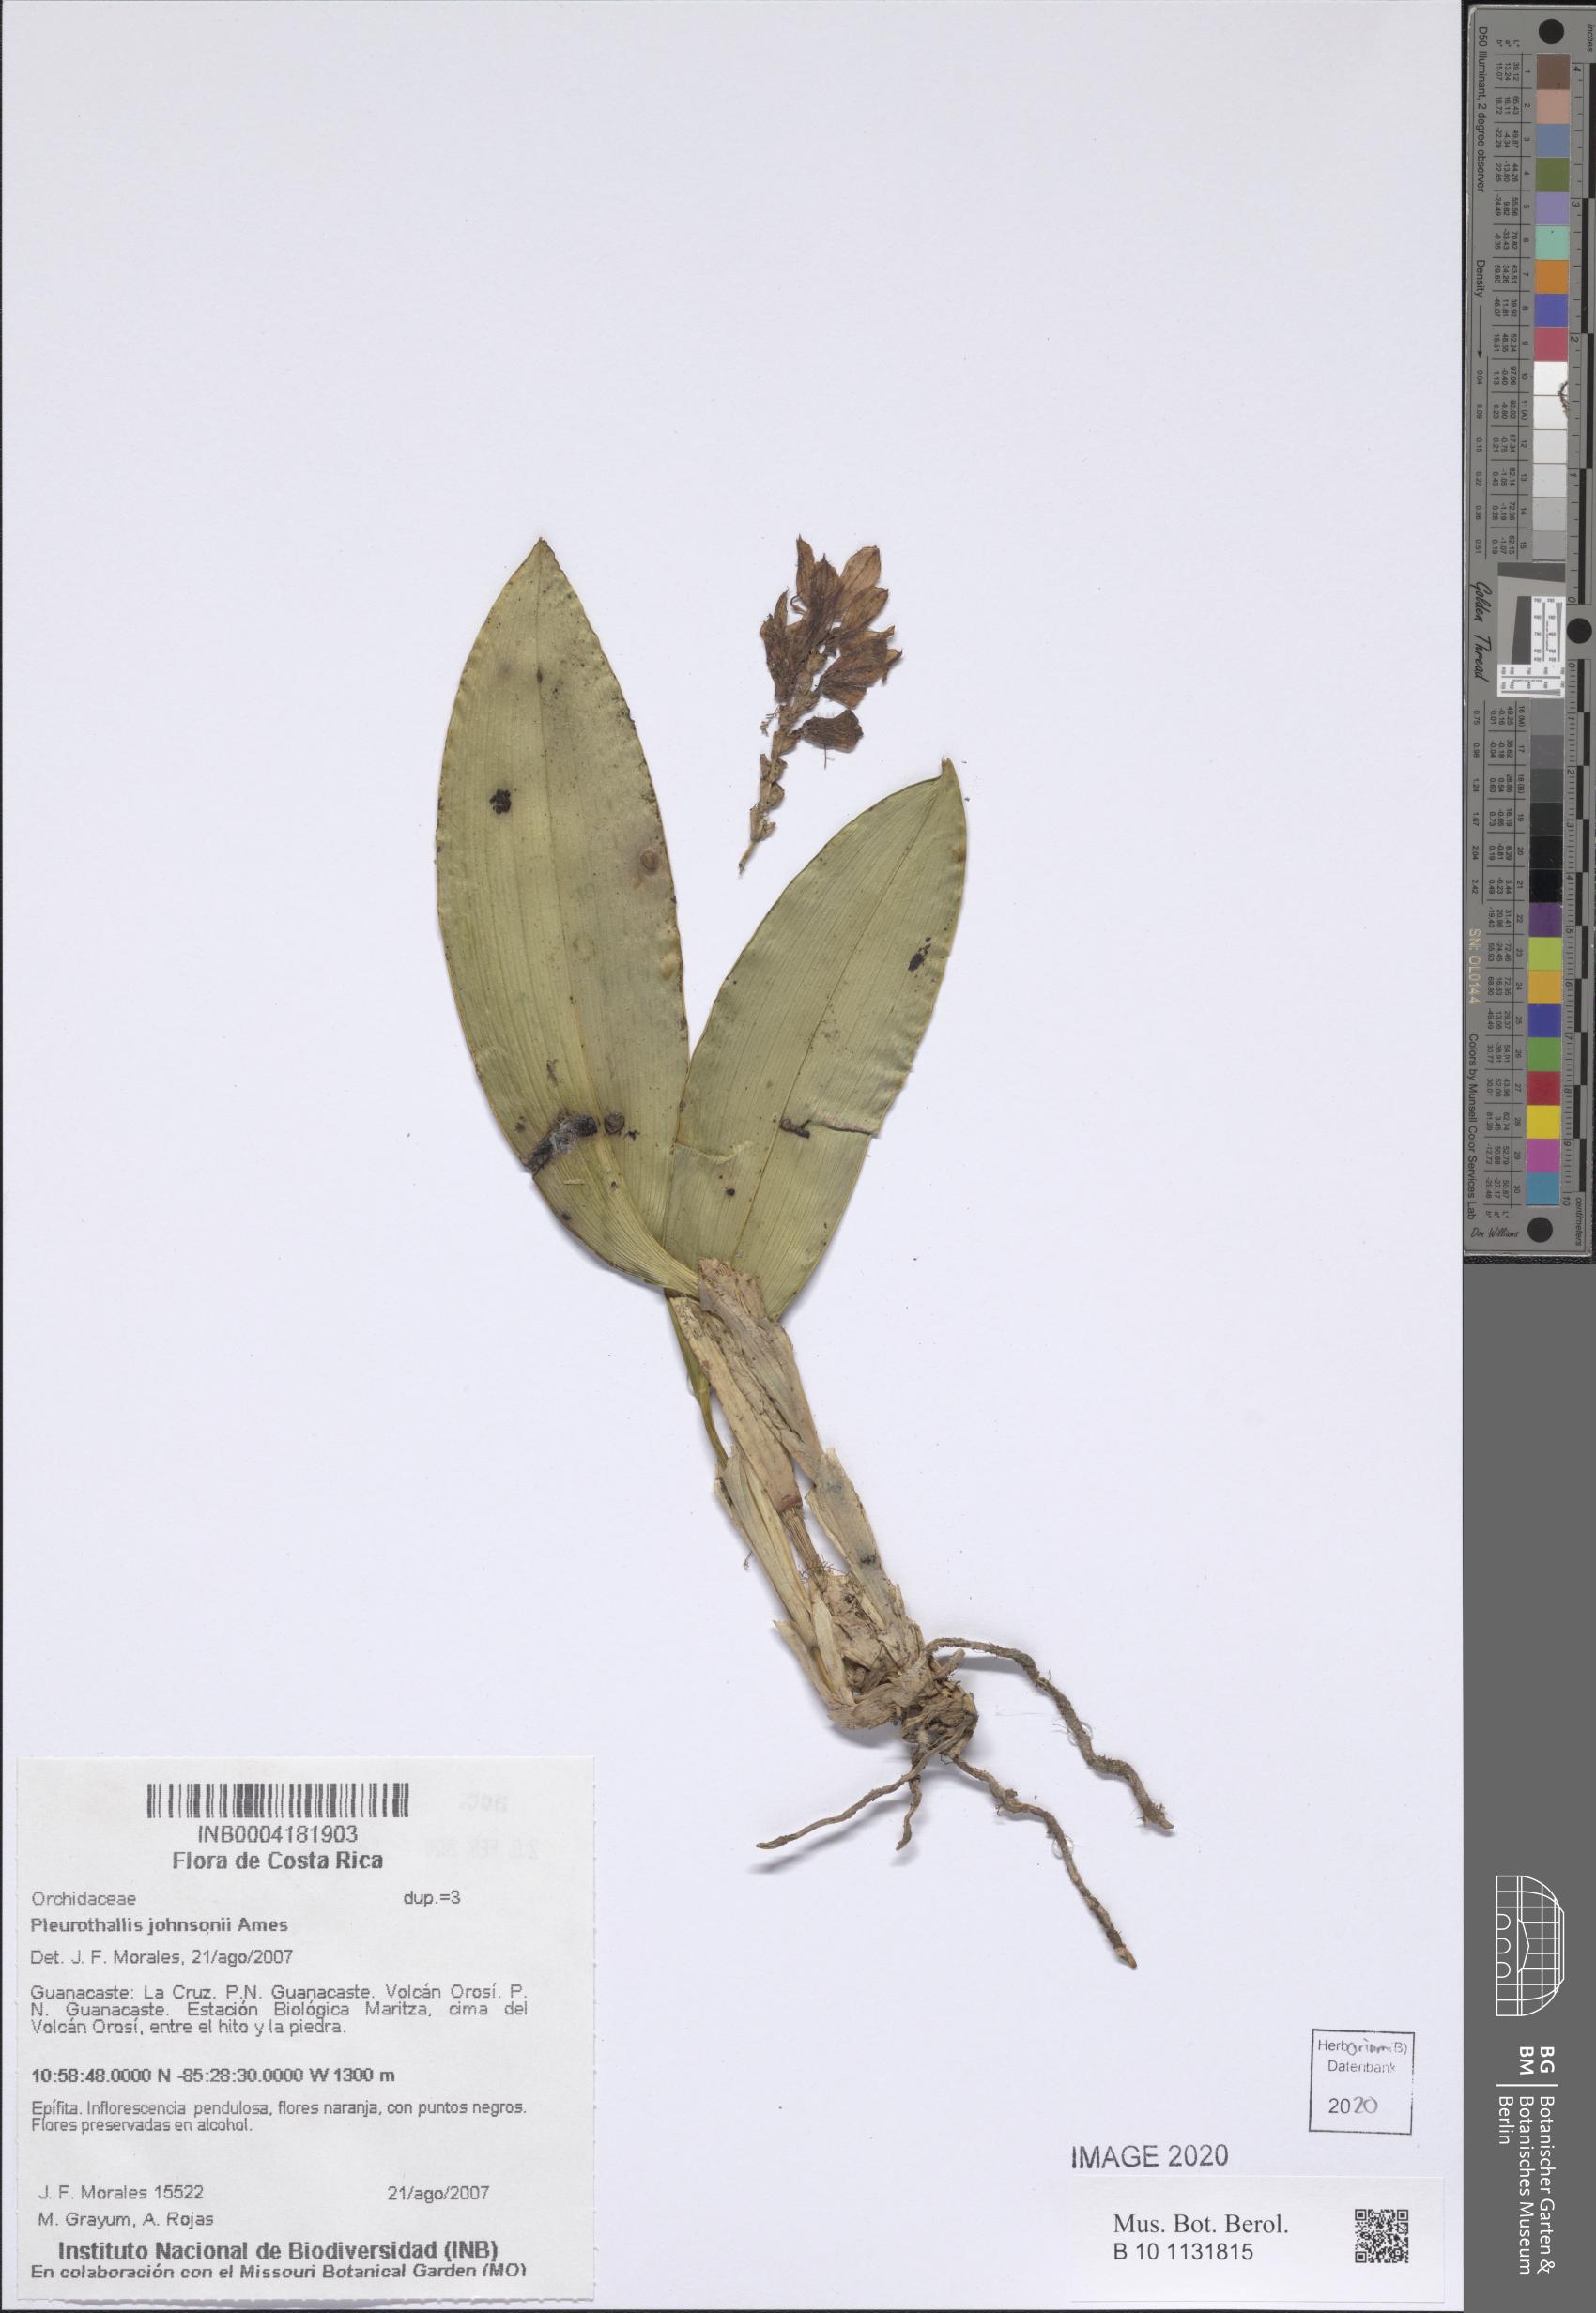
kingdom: Plantae
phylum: Tracheophyta
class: Liliopsida
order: Asparagales
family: Orchidaceae
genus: Acianthera
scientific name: Acianthera johnsonii
